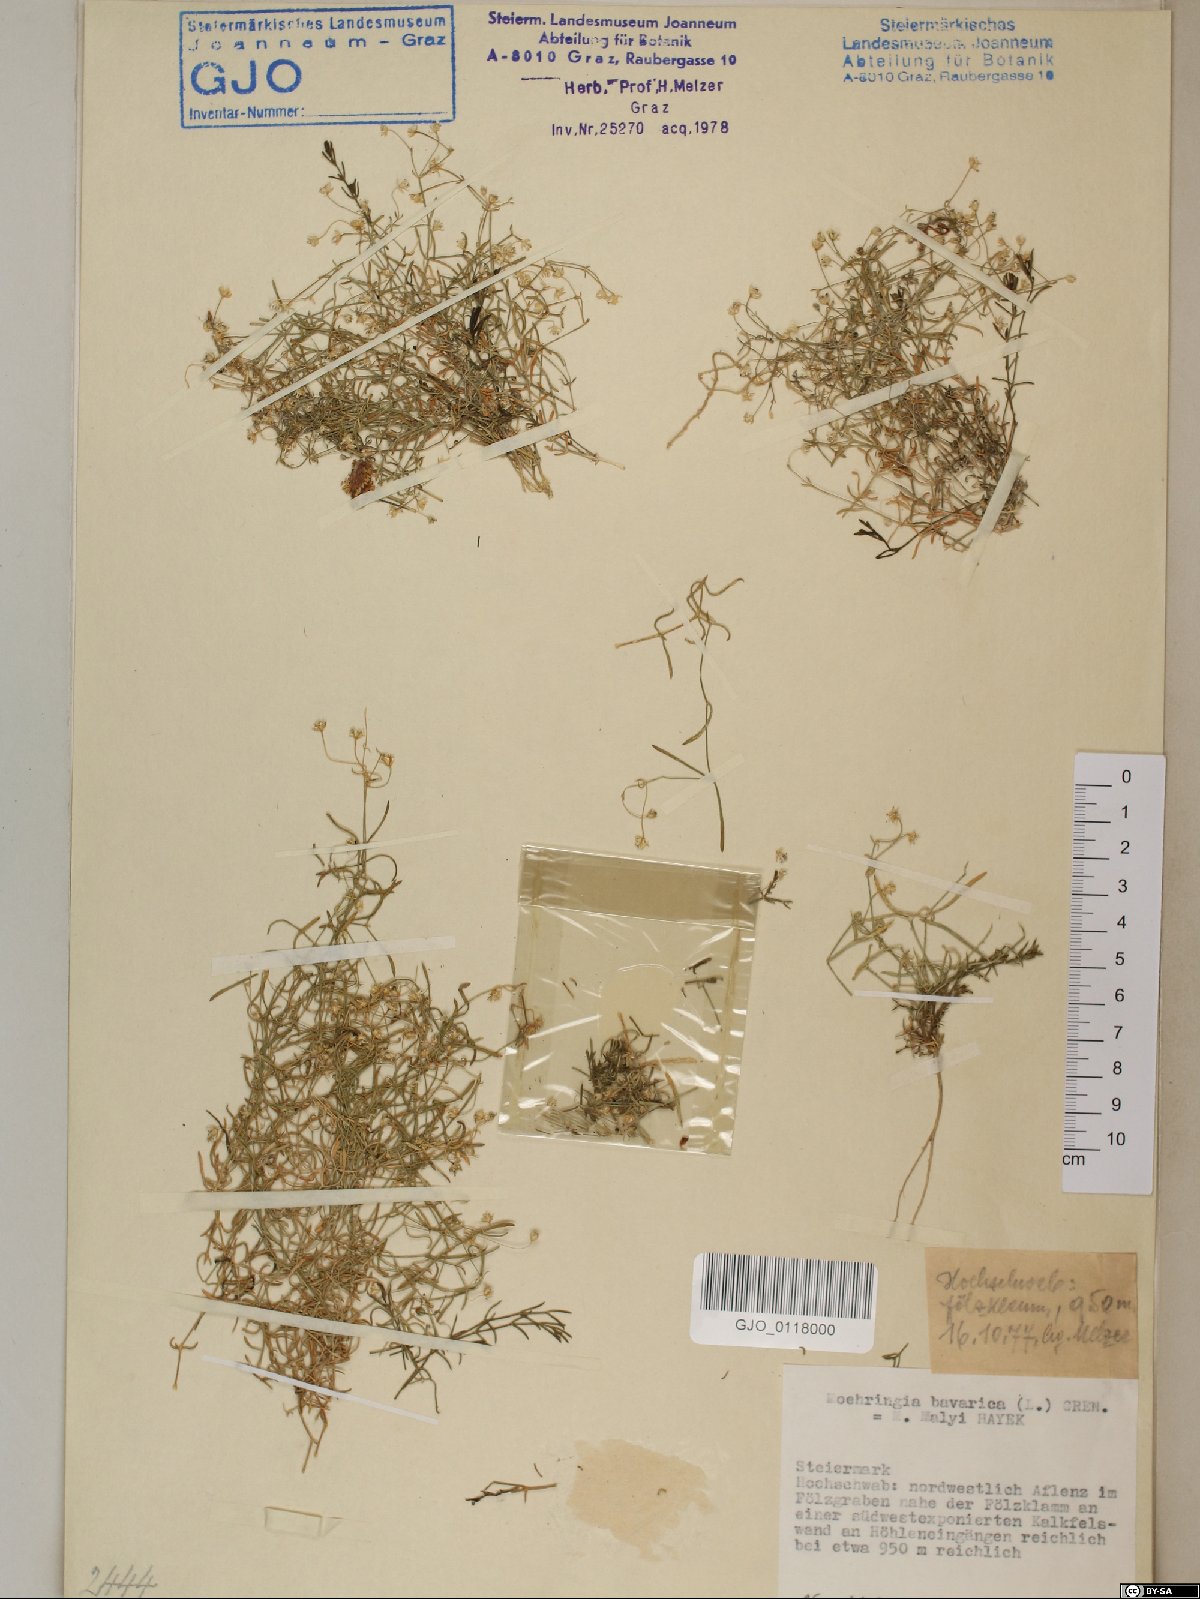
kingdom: Plantae
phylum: Tracheophyta
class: Magnoliopsida
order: Caryophyllales
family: Caryophyllaceae
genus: Moehringia
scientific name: Moehringia bavarica
